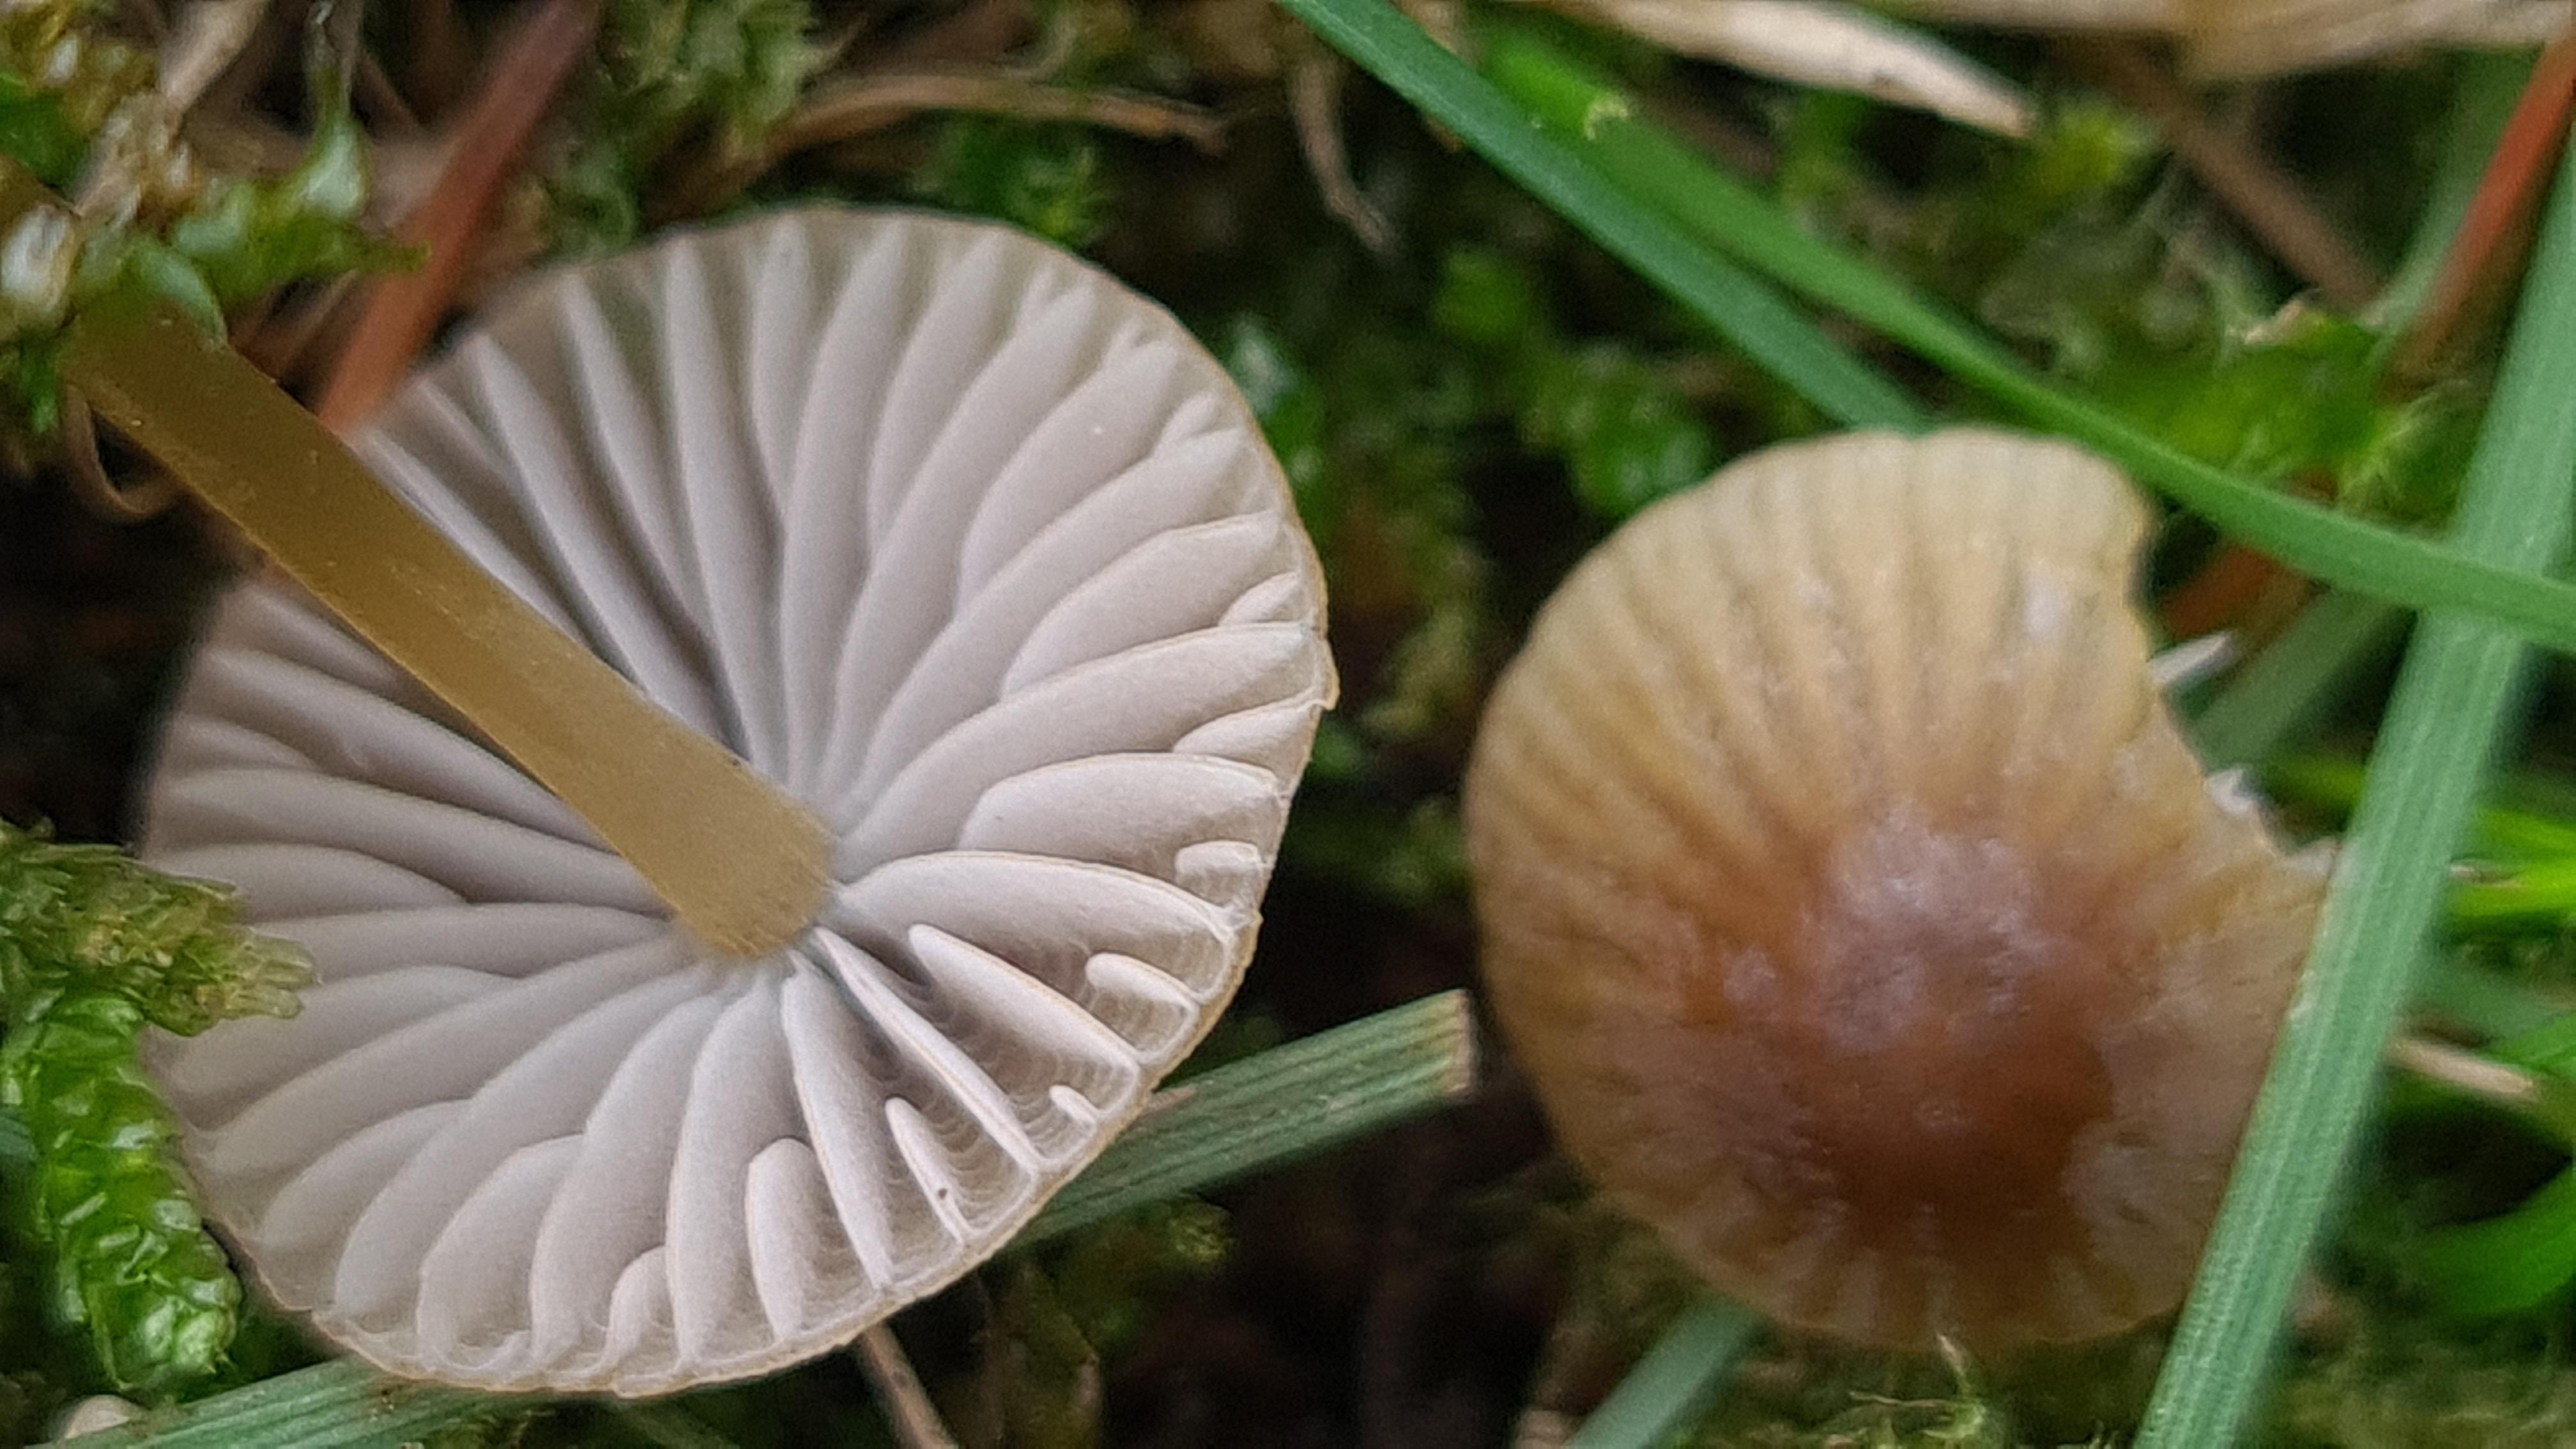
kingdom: Fungi
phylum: Basidiomycota
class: Agaricomycetes
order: Agaricales
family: Mycenaceae
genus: Mycena
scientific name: Mycena olivaceomarginata
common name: brunægget huesvamp
